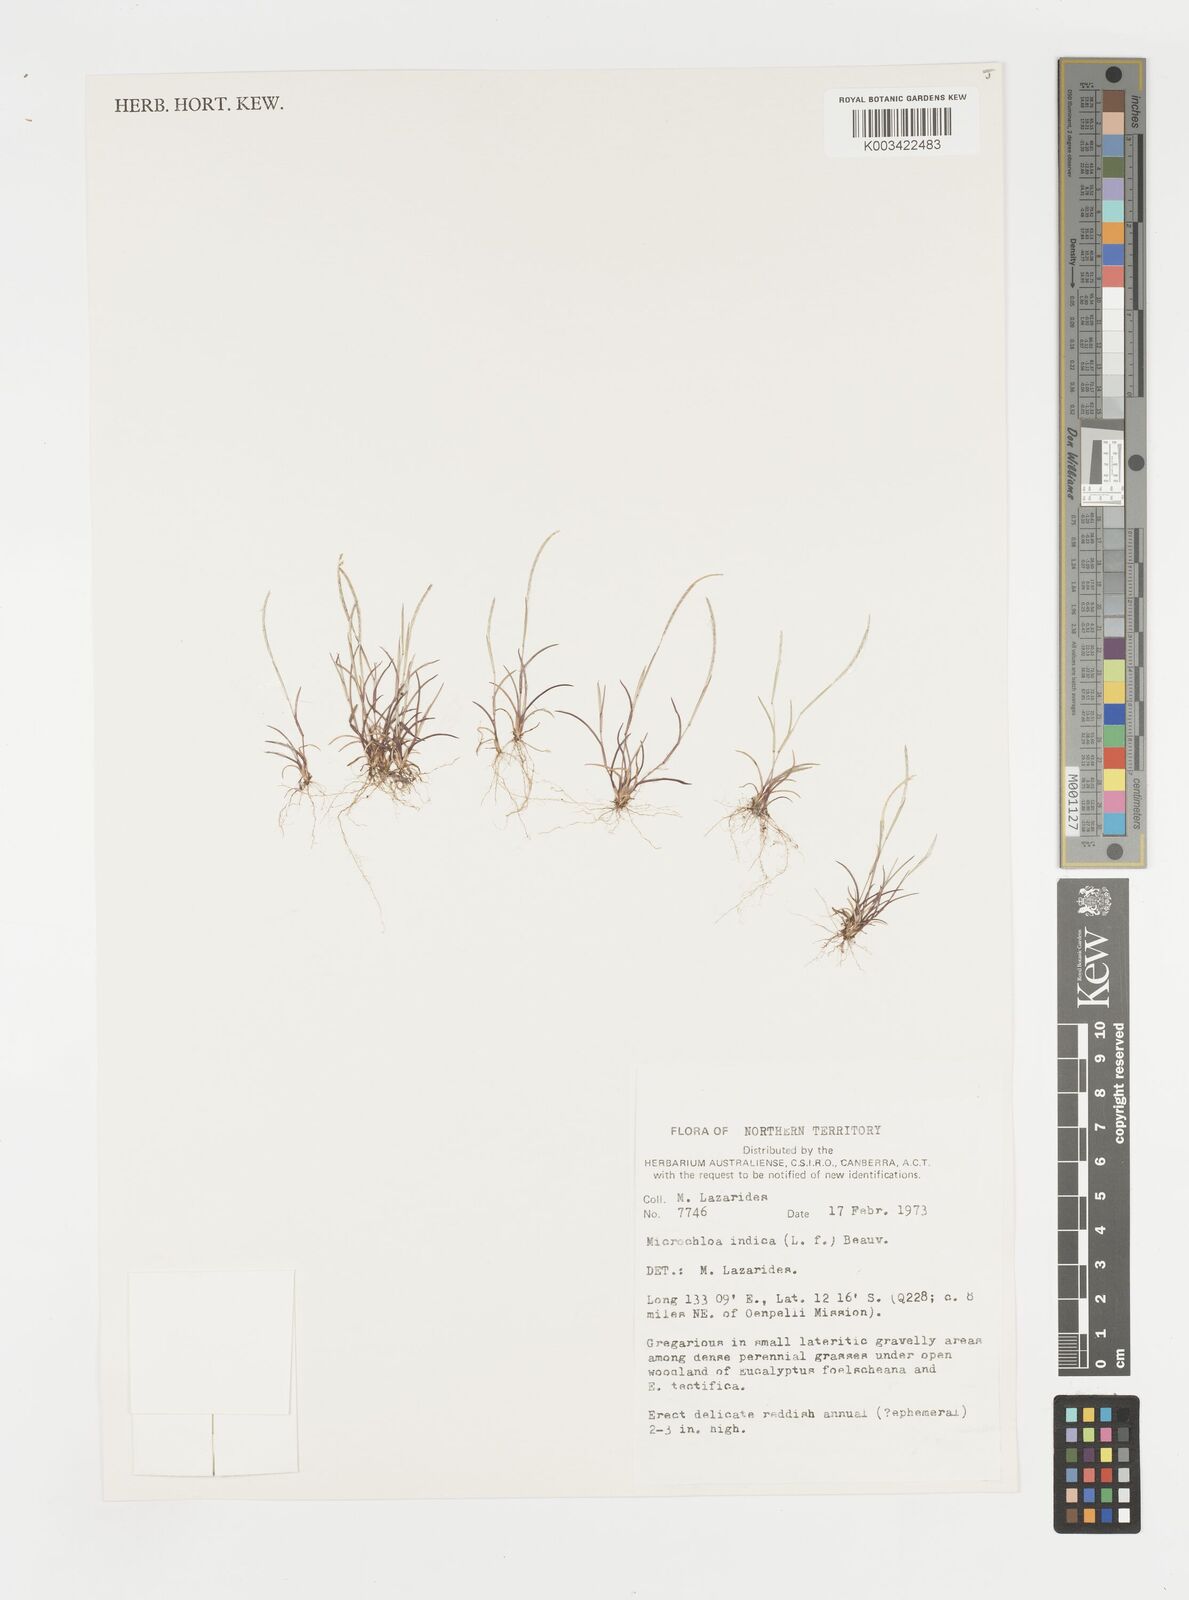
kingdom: Plantae
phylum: Tracheophyta
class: Liliopsida
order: Poales
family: Poaceae
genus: Microchloa
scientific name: Microchloa indica
